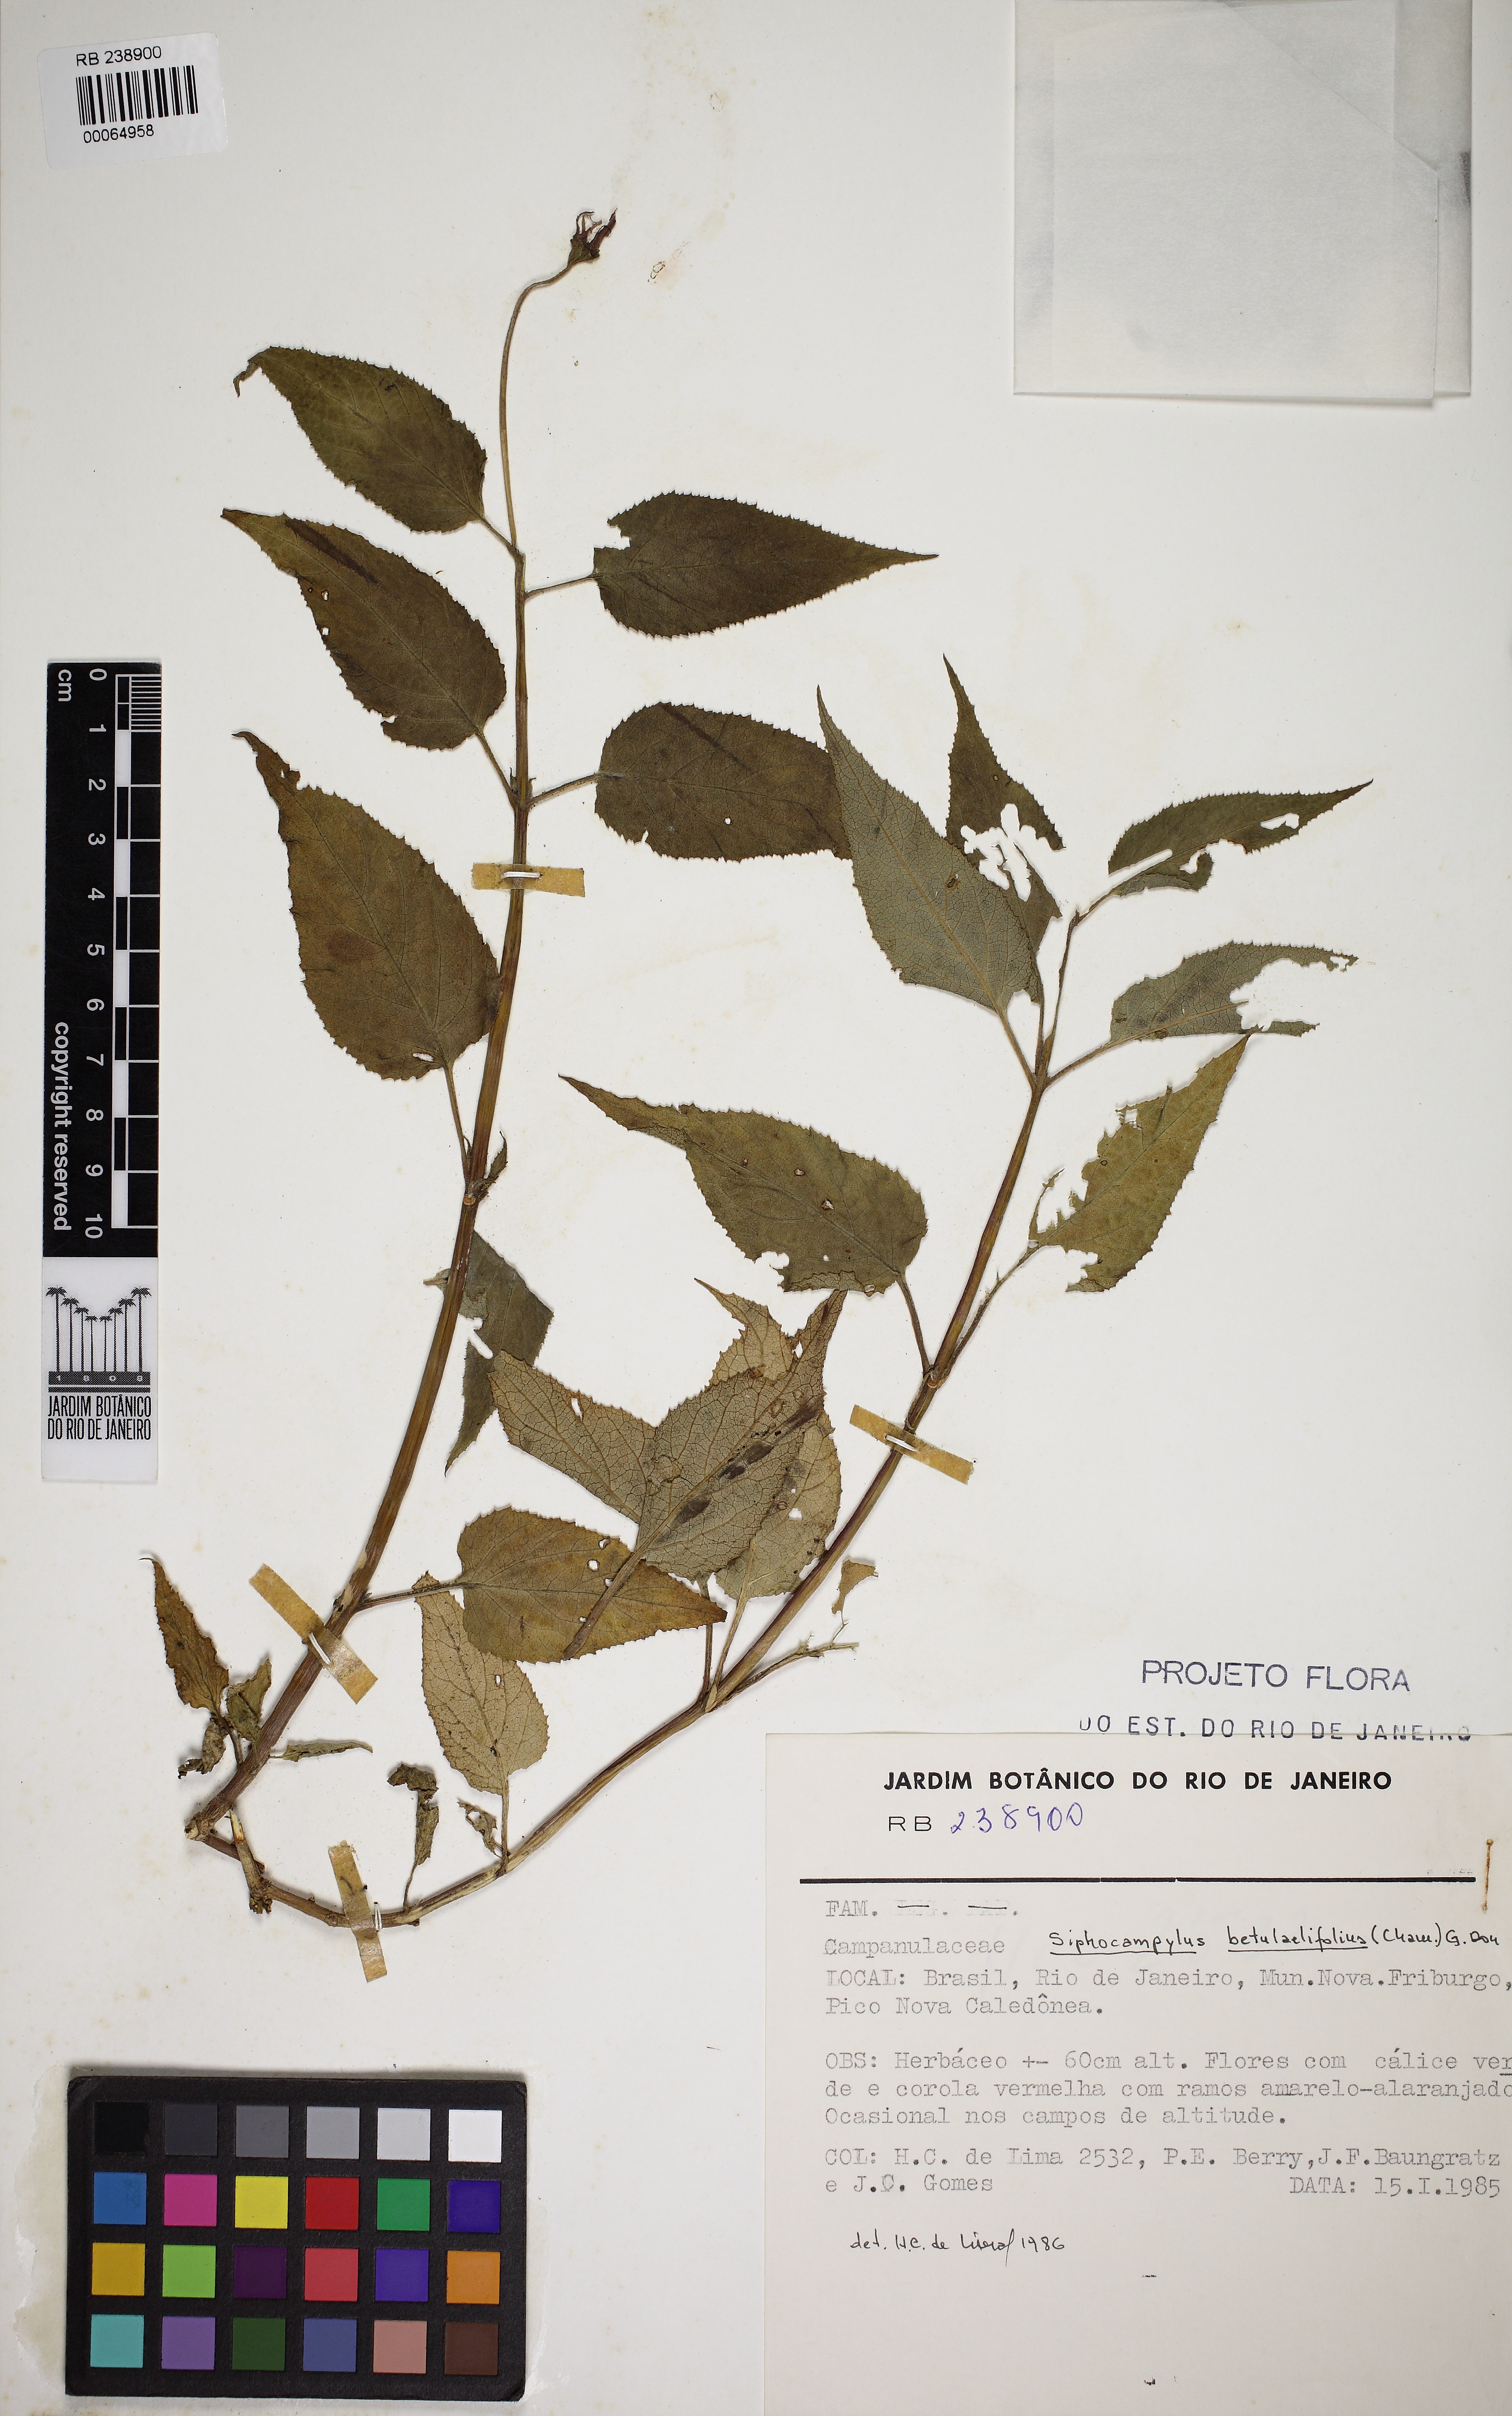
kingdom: Plantae
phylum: Tracheophyta
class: Magnoliopsida
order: Asterales
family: Campanulaceae
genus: Siphocampylus
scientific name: Siphocampylus duploserratus
